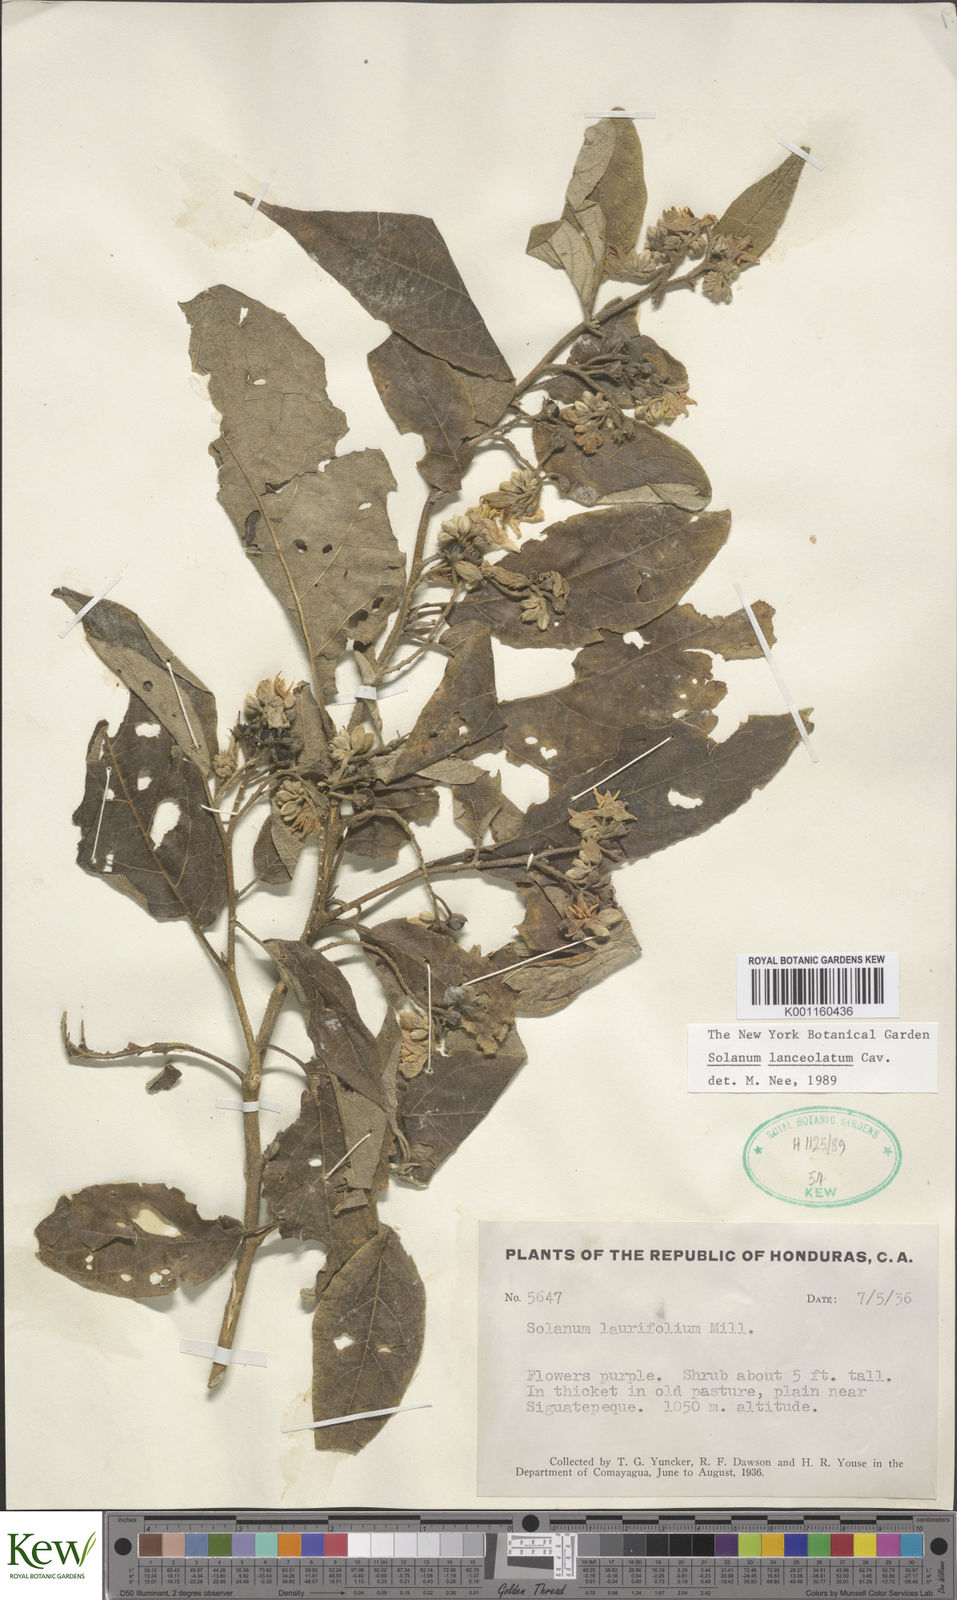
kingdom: Plantae
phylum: Tracheophyta
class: Magnoliopsida
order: Solanales
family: Solanaceae
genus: Solanum
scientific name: Solanum lanceolatum
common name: Orangeberry nightshade
